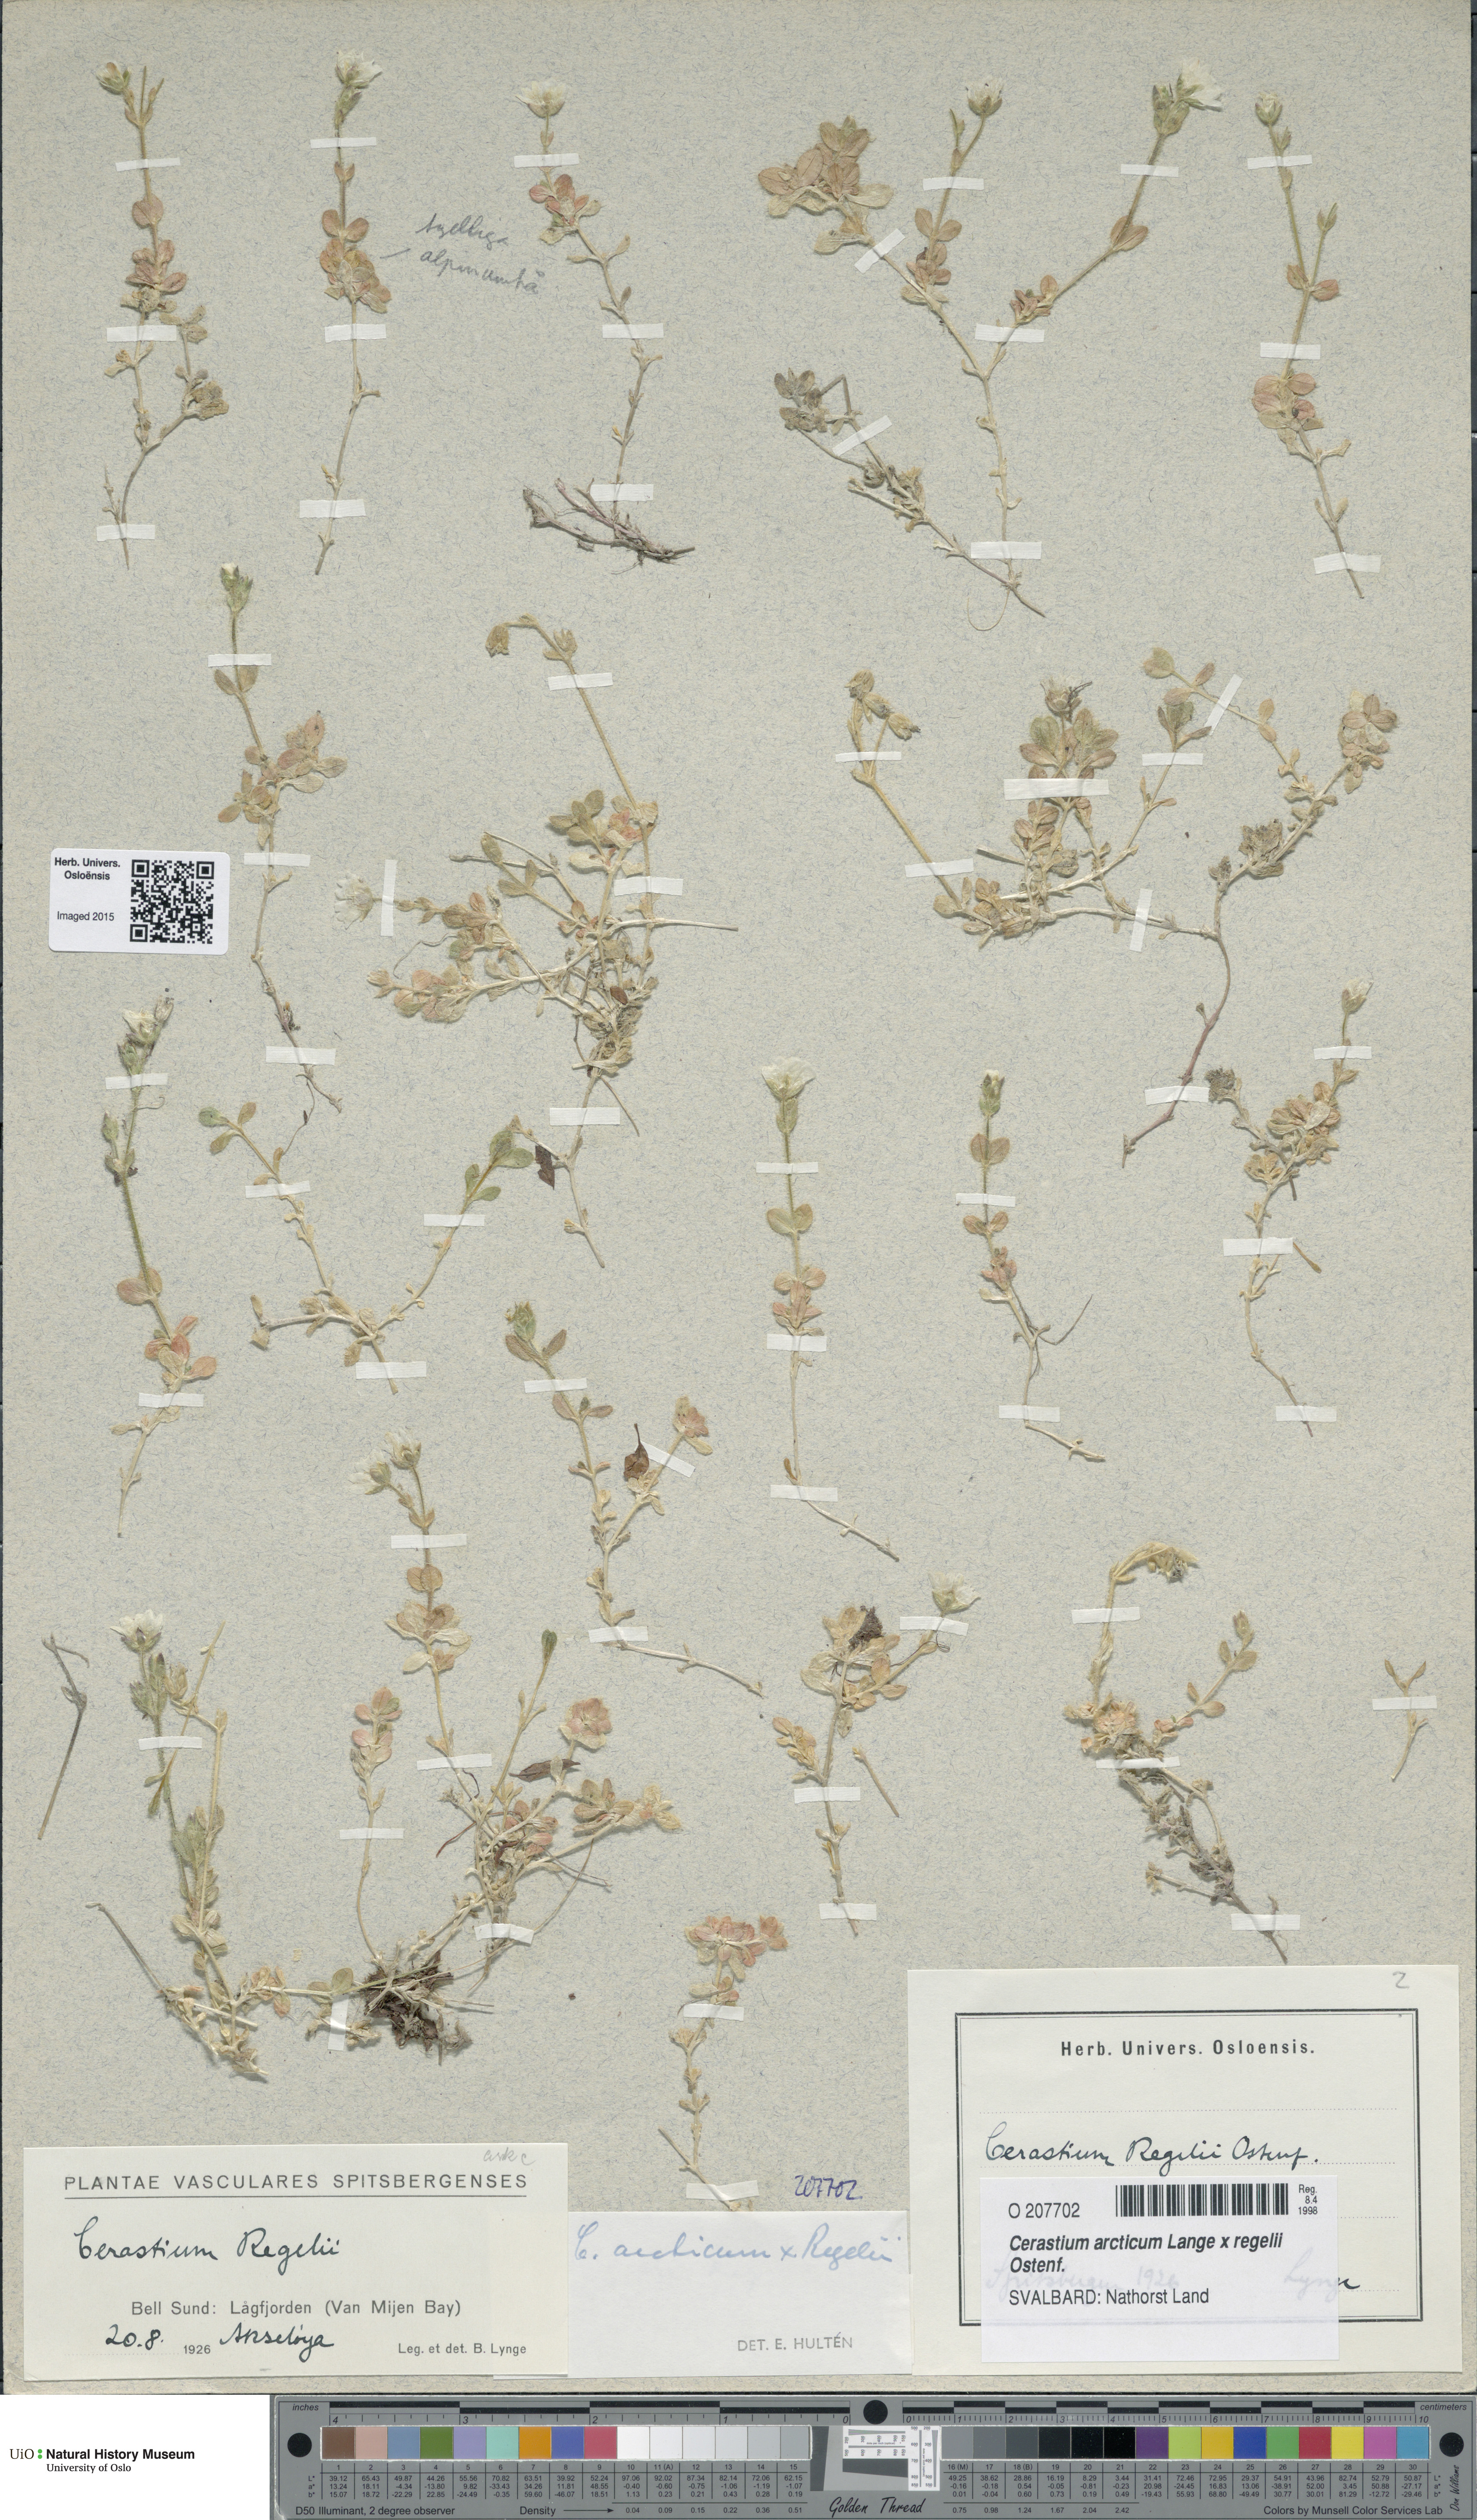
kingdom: Plantae
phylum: Tracheophyta
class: Magnoliopsida
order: Caryophyllales
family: Caryophyllaceae
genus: Cerastium
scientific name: Cerastium
